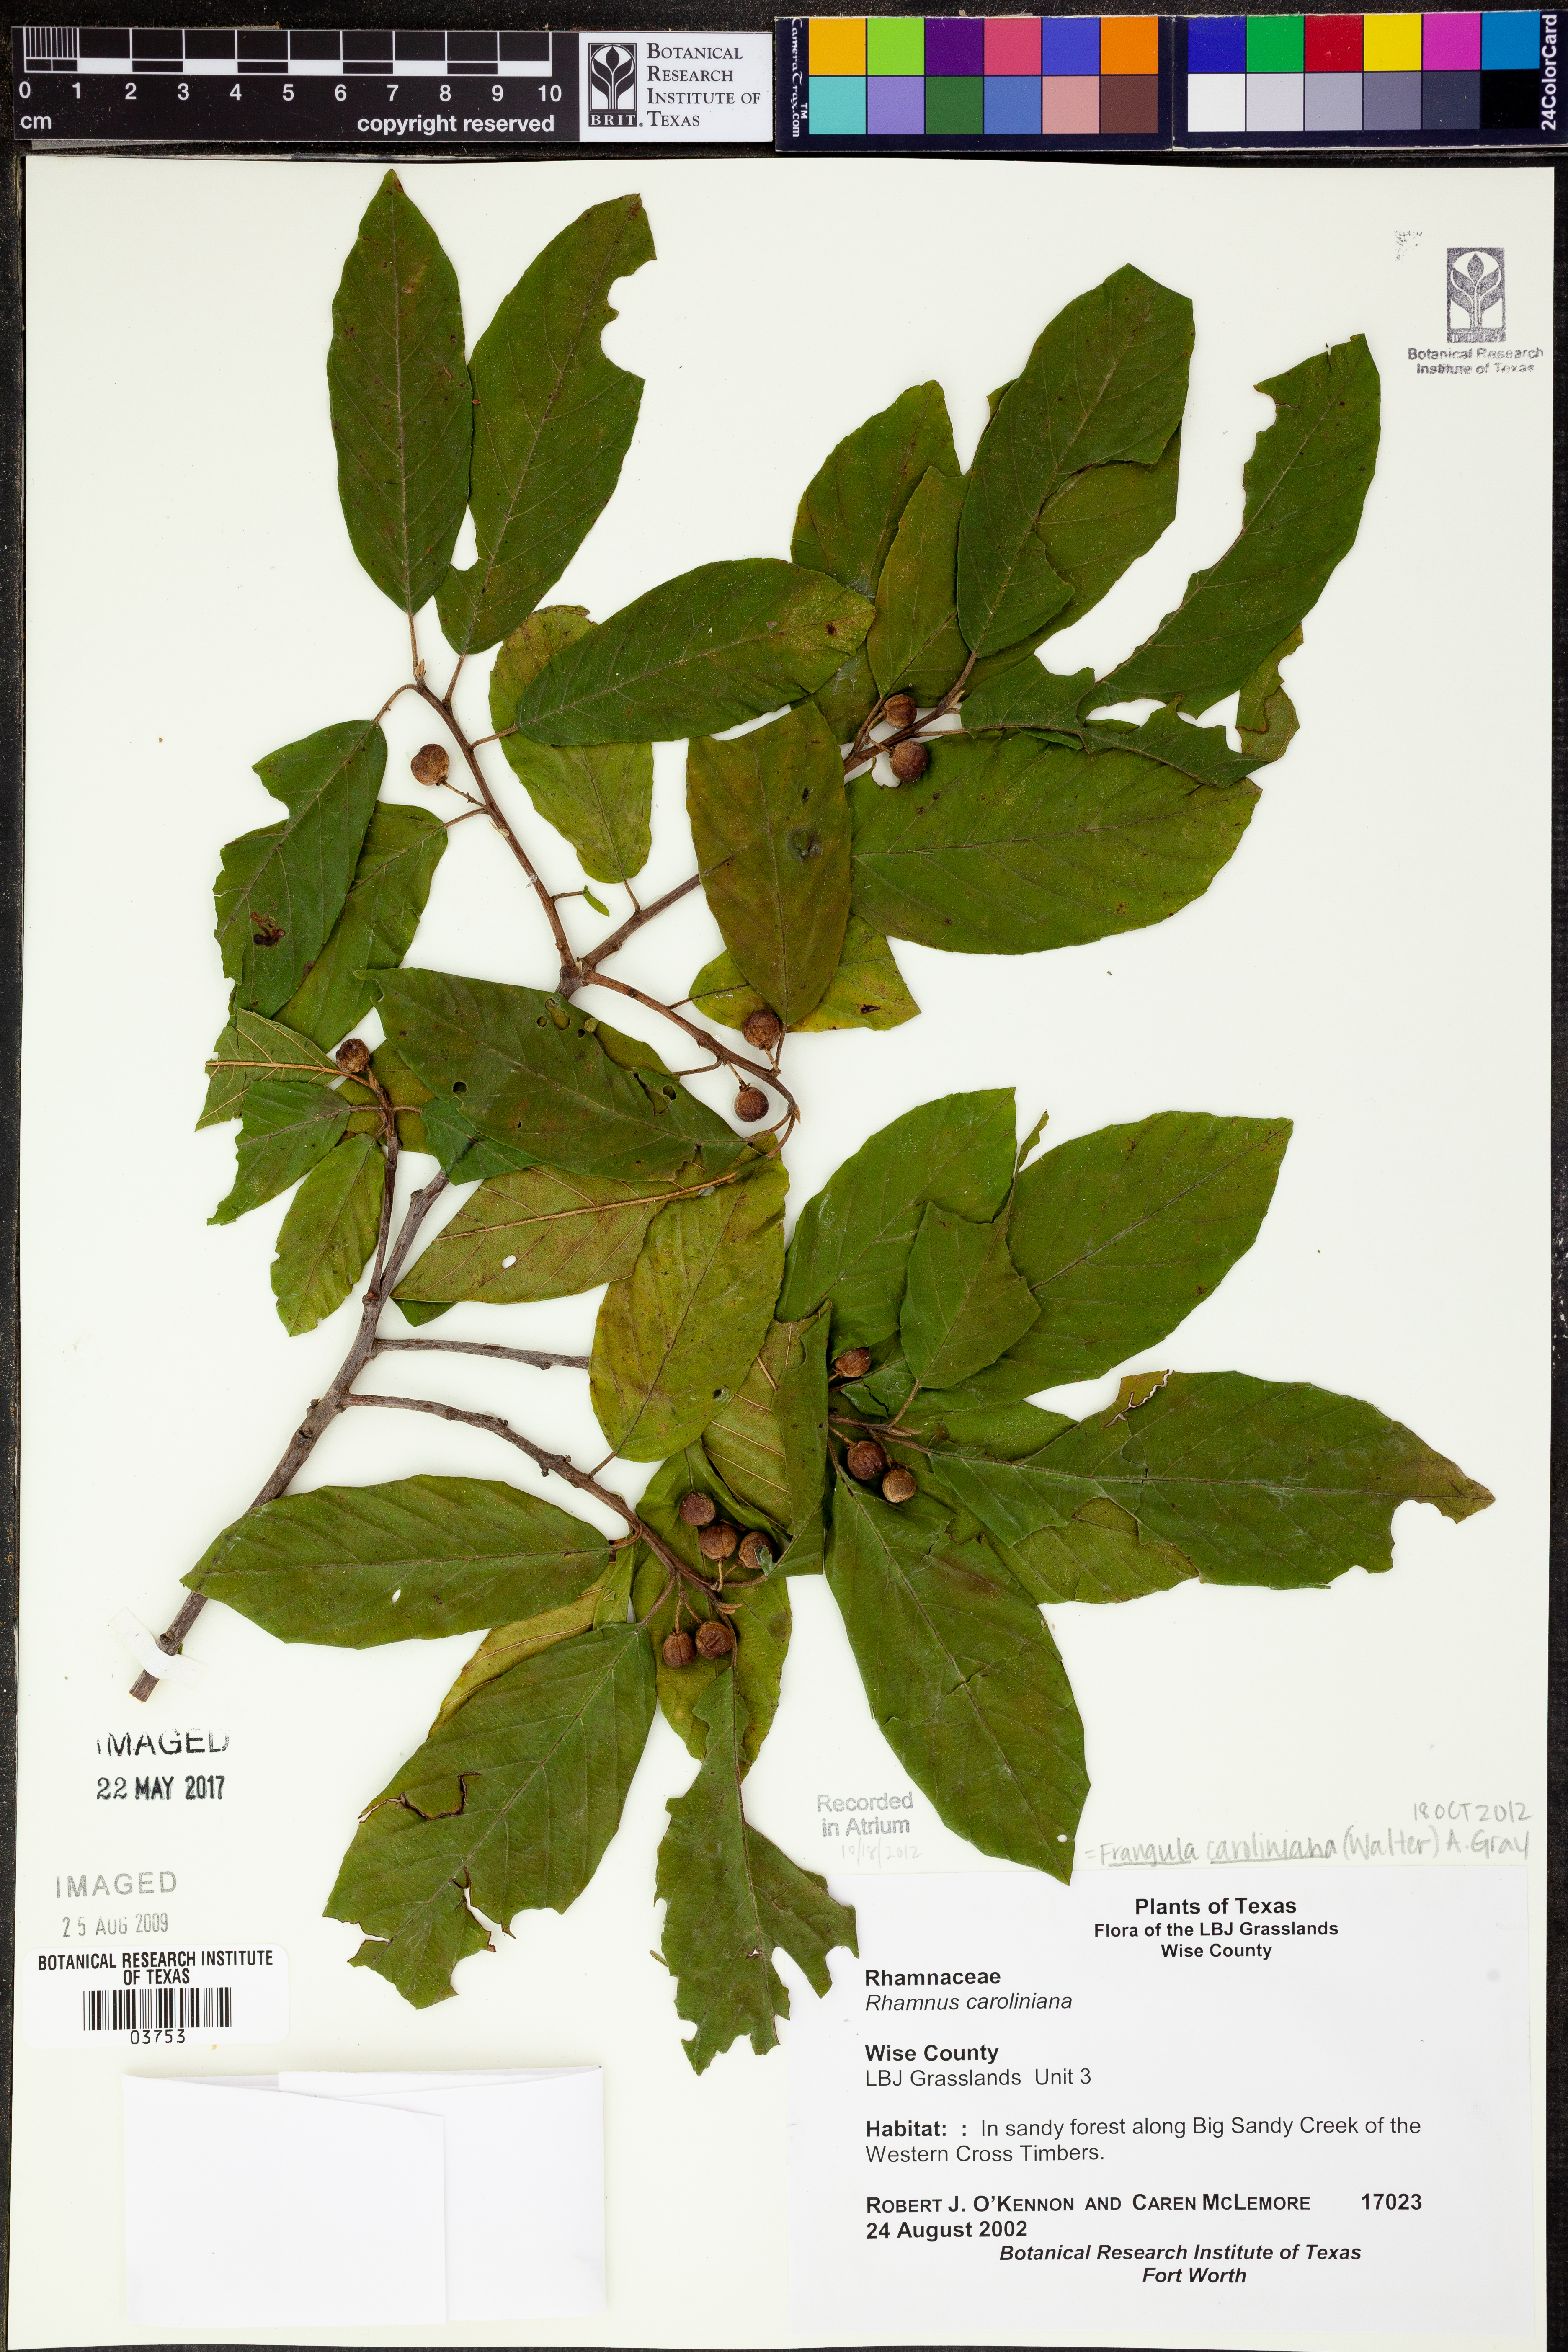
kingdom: Plantae
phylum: Tracheophyta
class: Magnoliopsida
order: Rosales
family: Rhamnaceae
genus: Frangula
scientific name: Frangula caroliniana
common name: Carolina buckthorn
